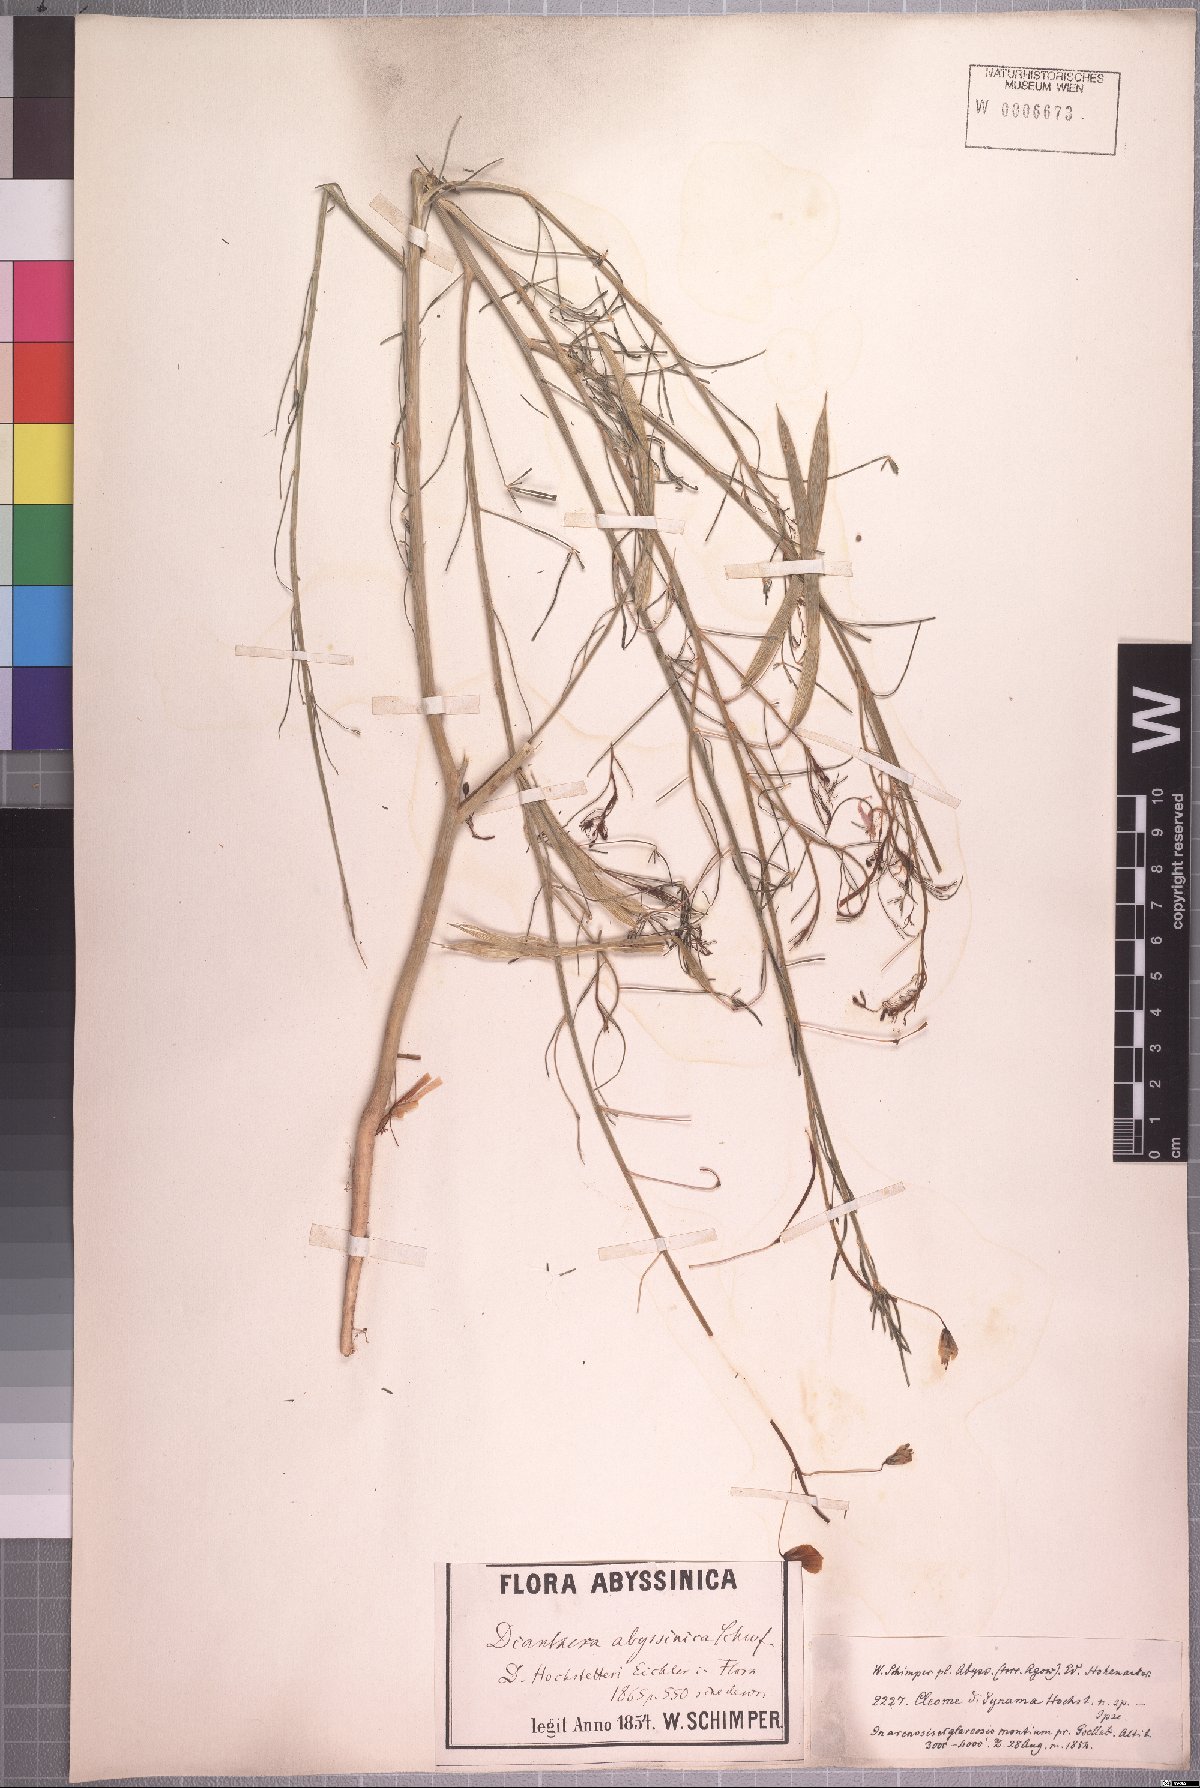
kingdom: Plantae
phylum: Tracheophyta
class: Magnoliopsida
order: Brassicales
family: Cleomaceae
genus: Coalisina
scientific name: Coalisina angustifolia
